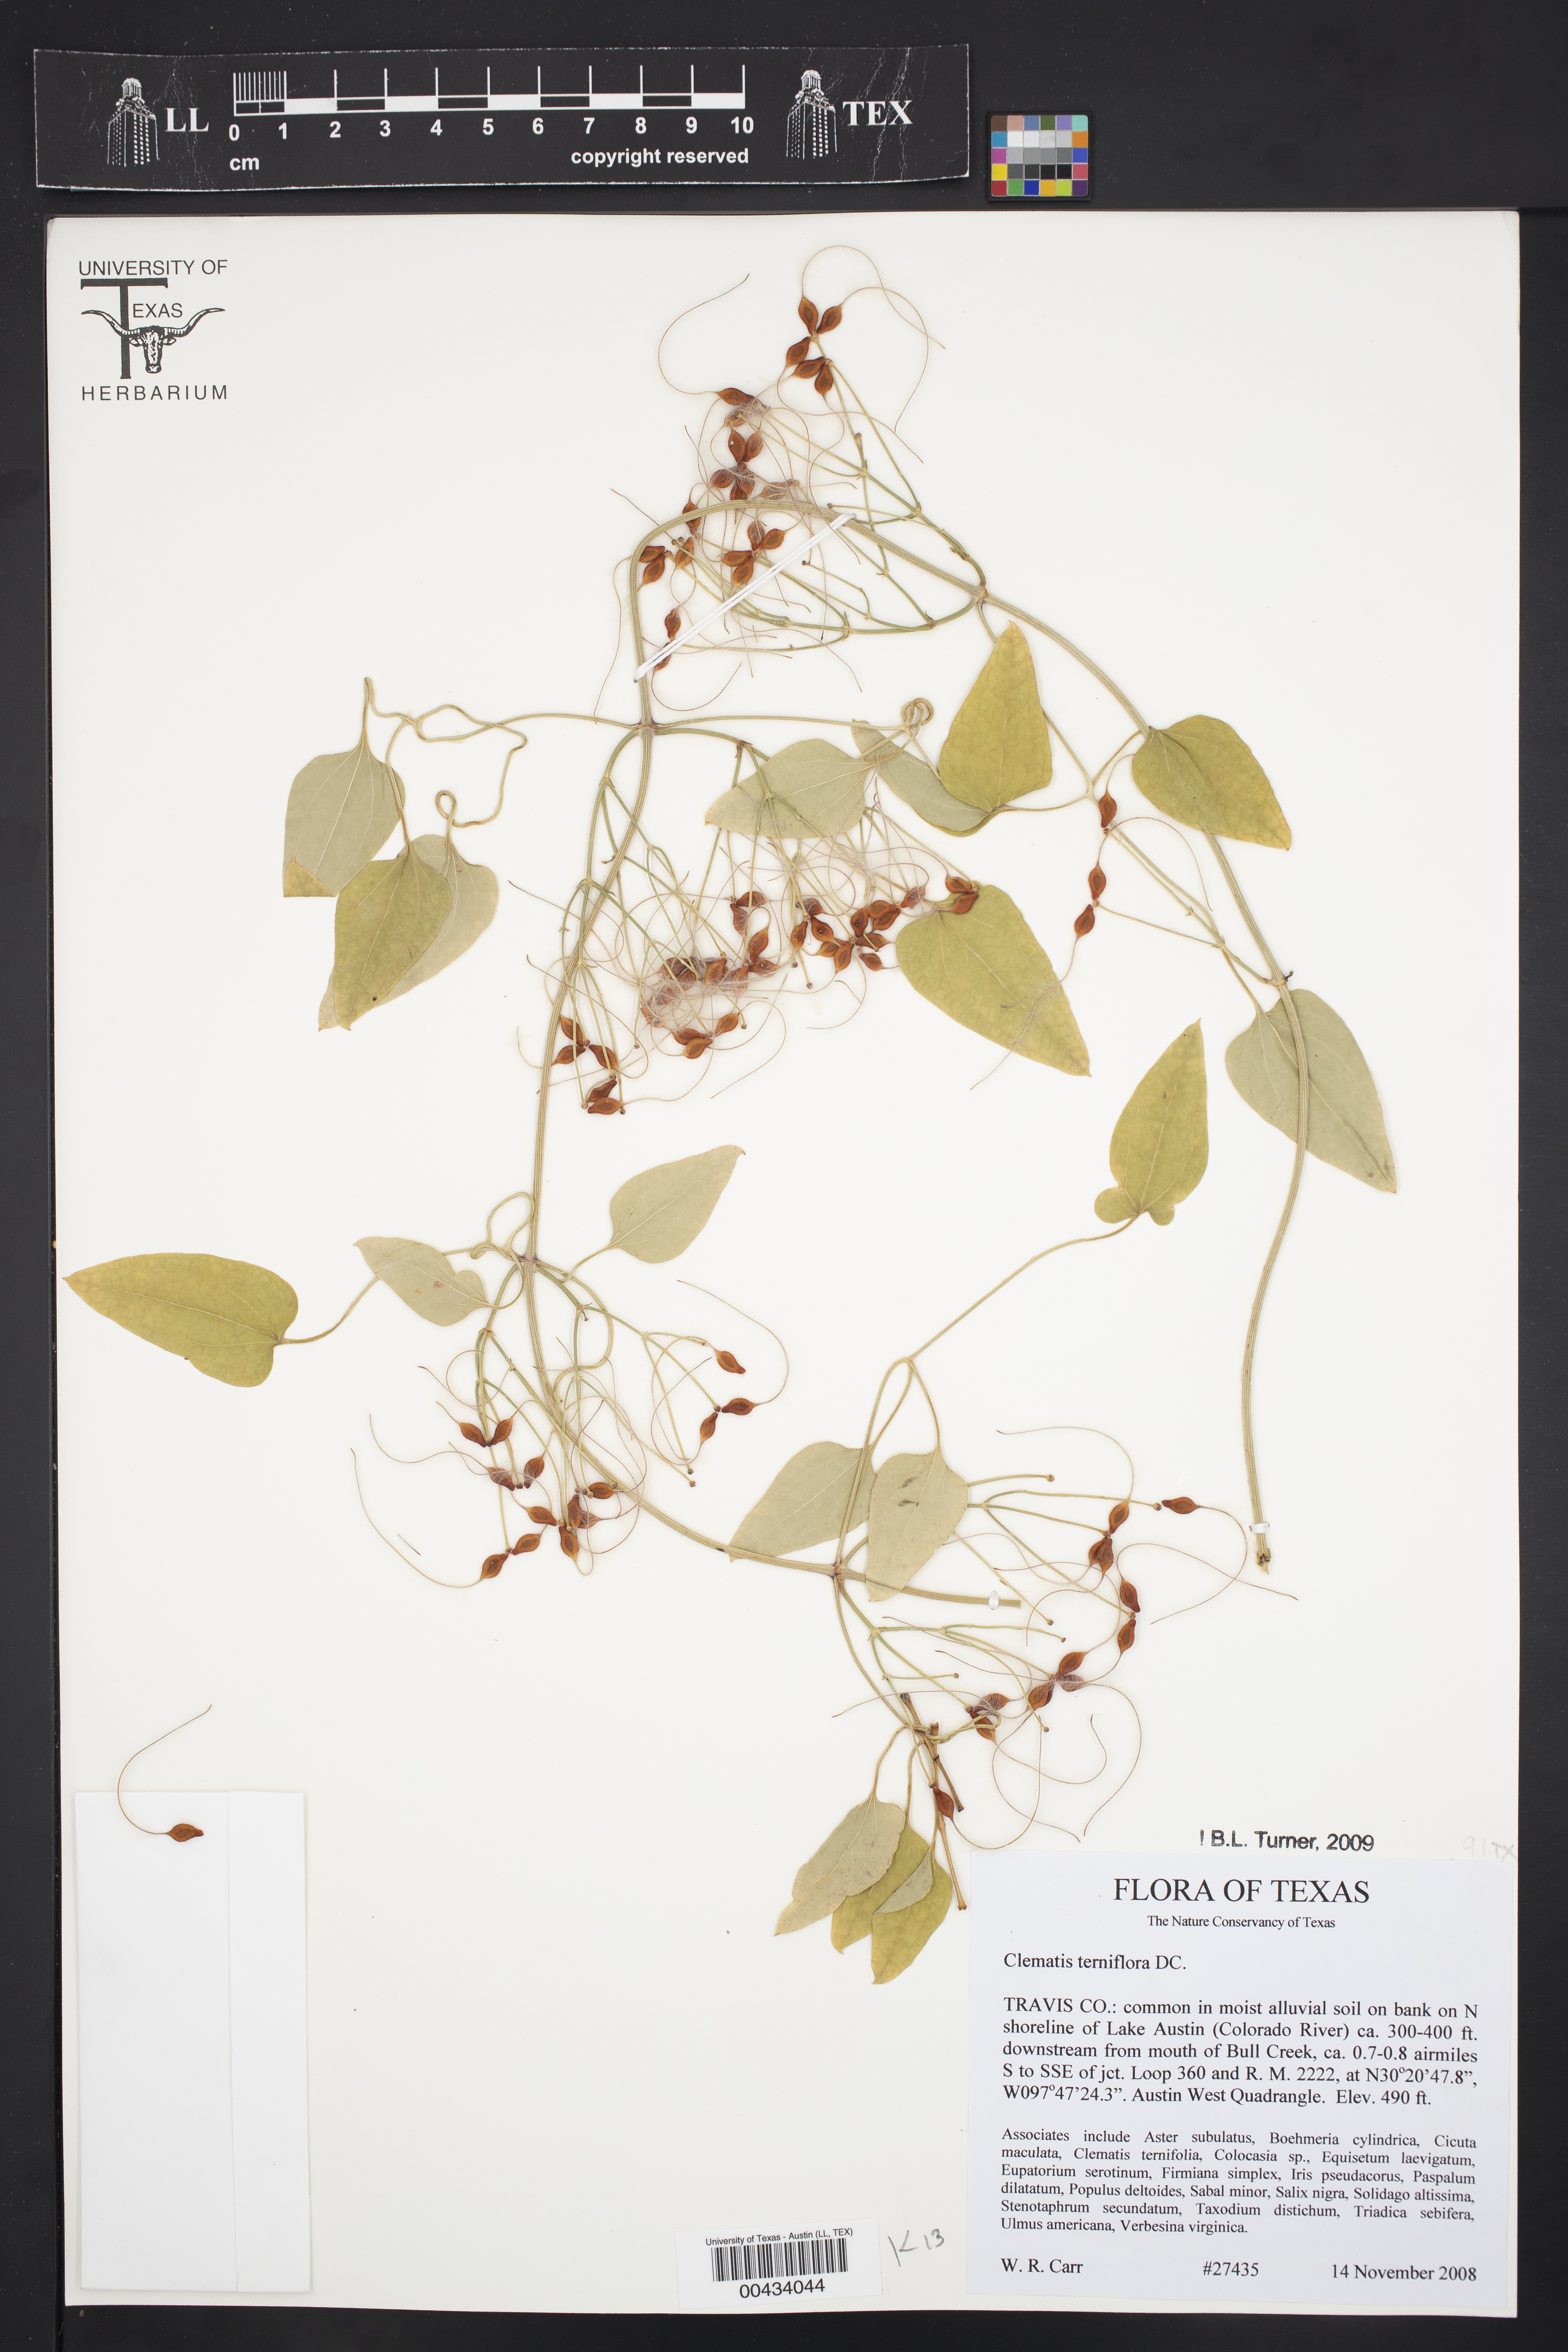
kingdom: Plantae
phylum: Tracheophyta
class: Magnoliopsida
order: Ranunculales
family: Ranunculaceae
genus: Clematis
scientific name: Clematis terniflora
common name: Sweet autumn clematis
